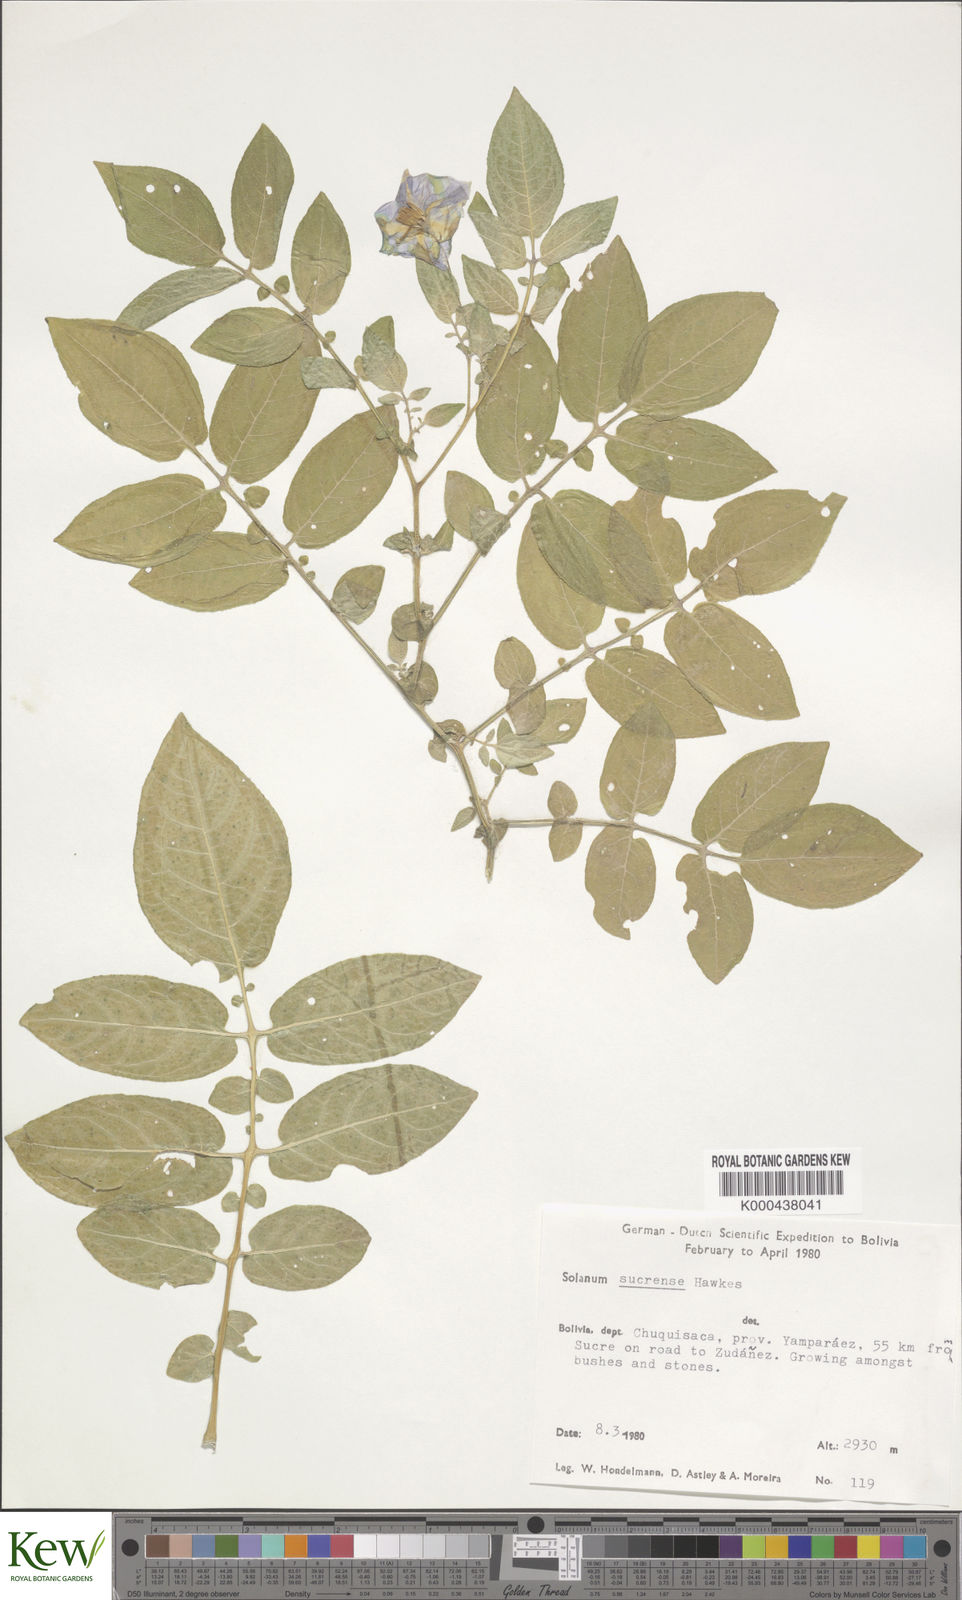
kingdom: Plantae
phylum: Tracheophyta
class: Magnoliopsida
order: Solanales
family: Solanaceae
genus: Solanum
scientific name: Solanum brevicaule
